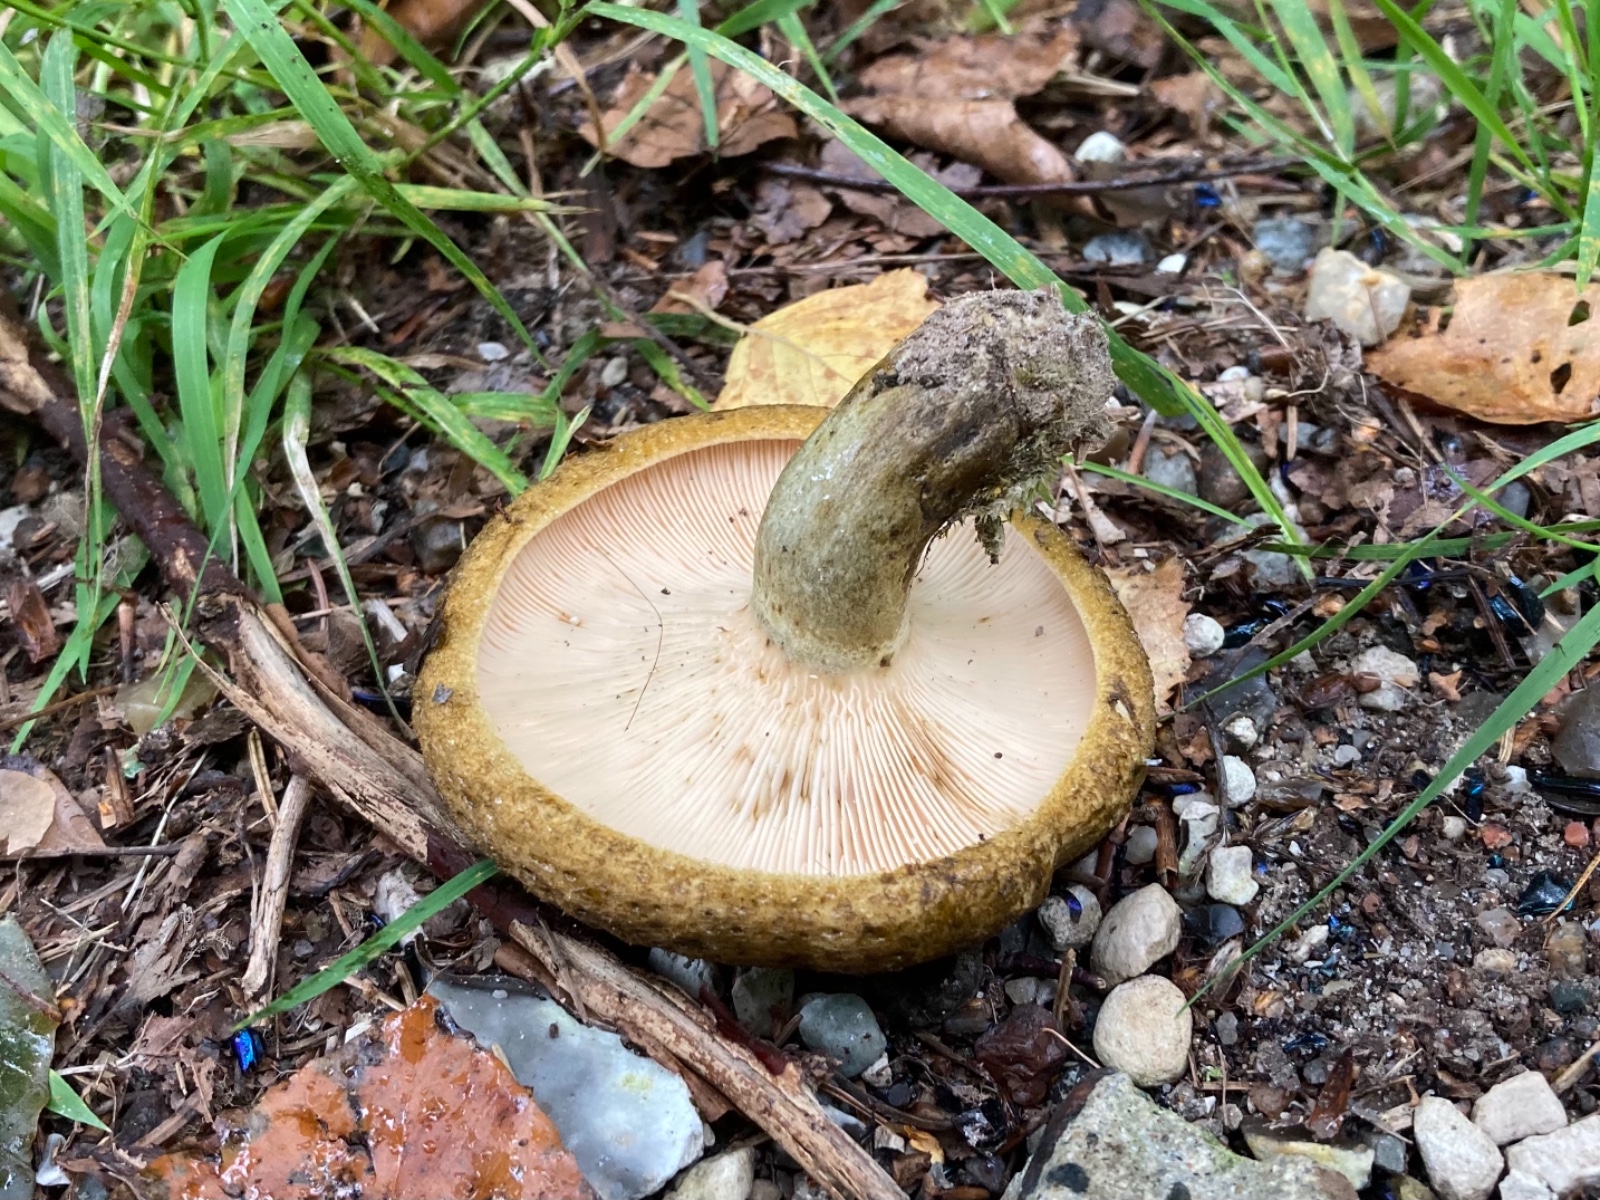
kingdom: Fungi
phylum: Basidiomycota
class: Agaricomycetes
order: Russulales
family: Russulaceae
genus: Lactarius
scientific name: Lactarius necator
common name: manddraber-mælkehat
